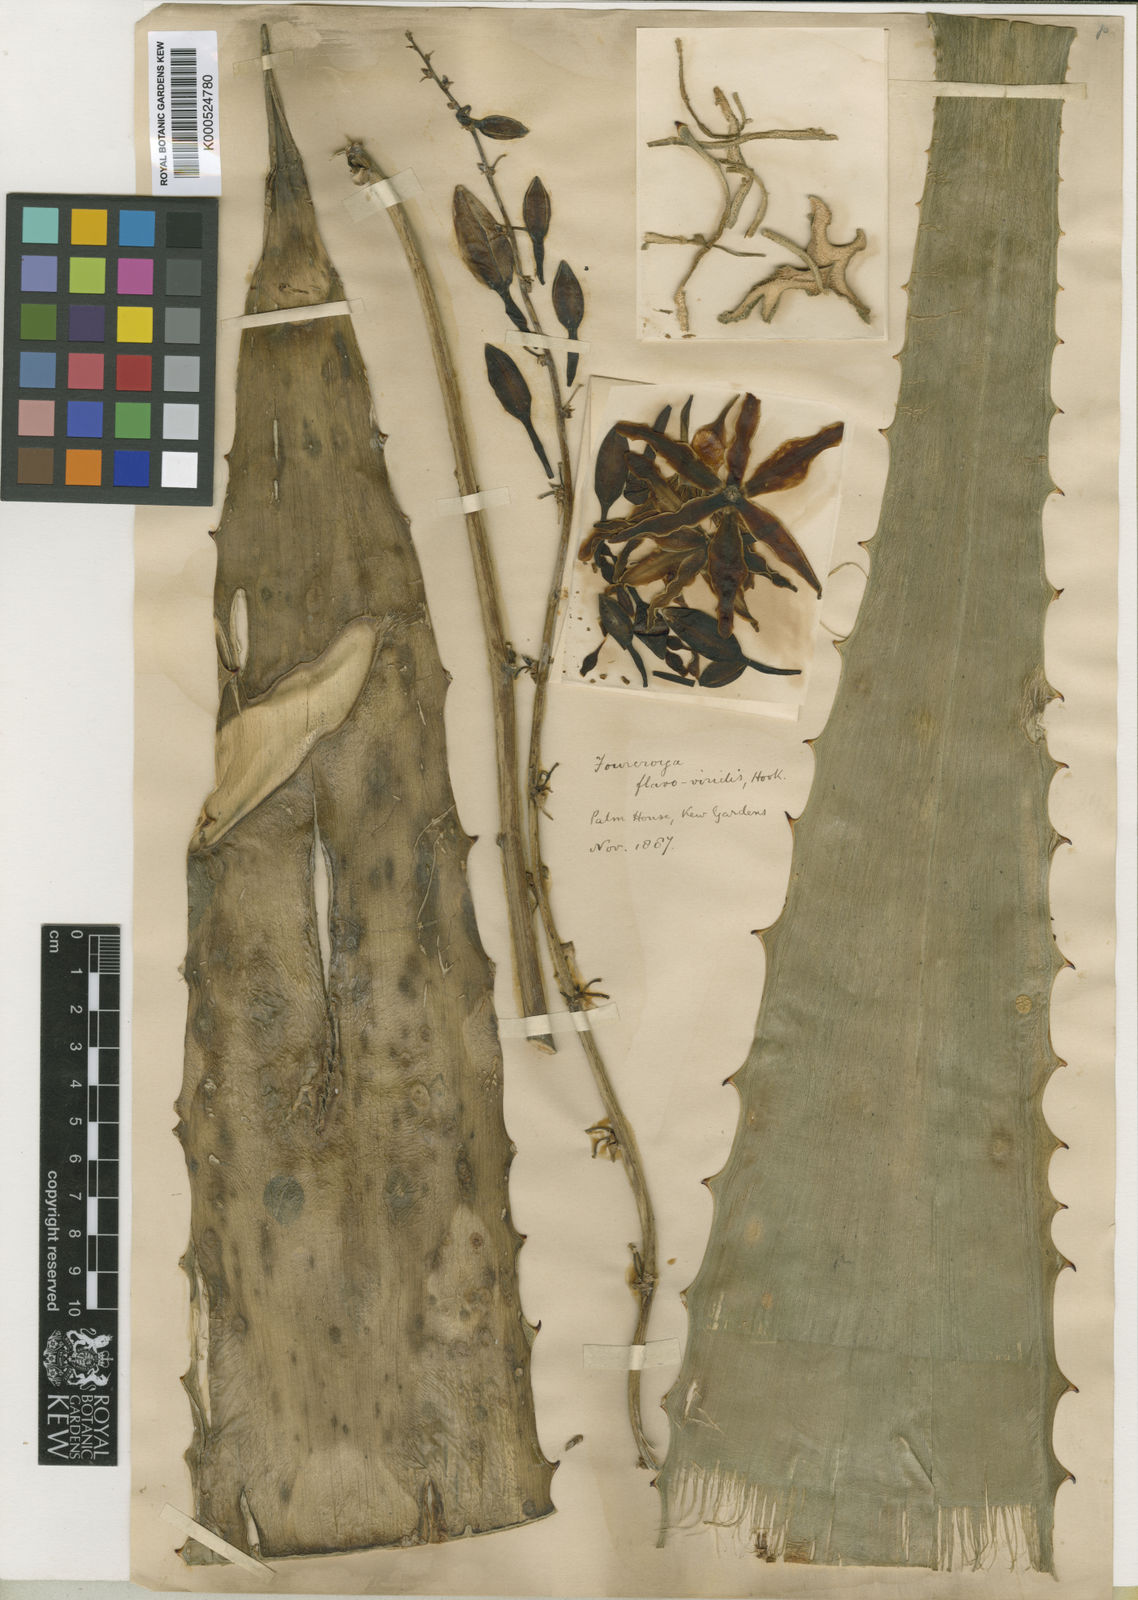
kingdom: Plantae
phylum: Tracheophyta
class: Liliopsida
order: Asparagales
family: Asparagaceae
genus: Furcraea
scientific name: Furcraea
